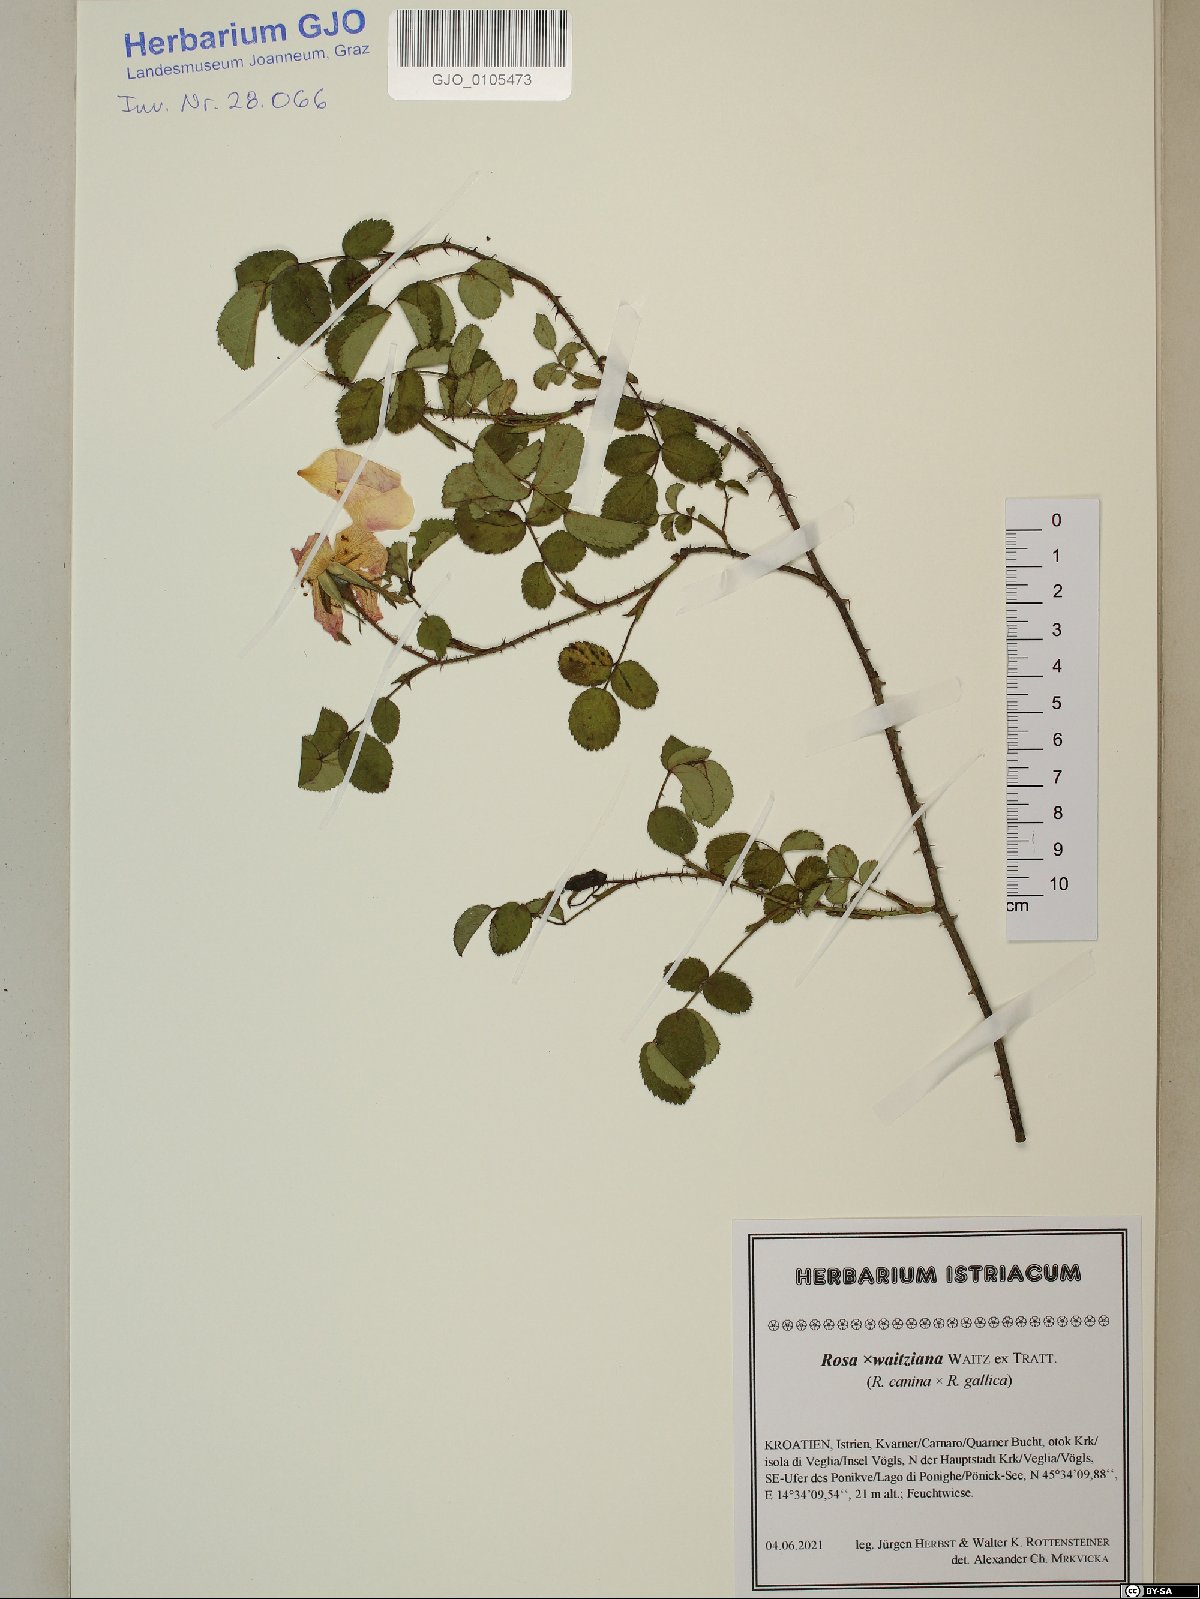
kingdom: Plantae
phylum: Tracheophyta
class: Magnoliopsida
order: Rosales
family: Rosaceae
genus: Rosa
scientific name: Rosa
